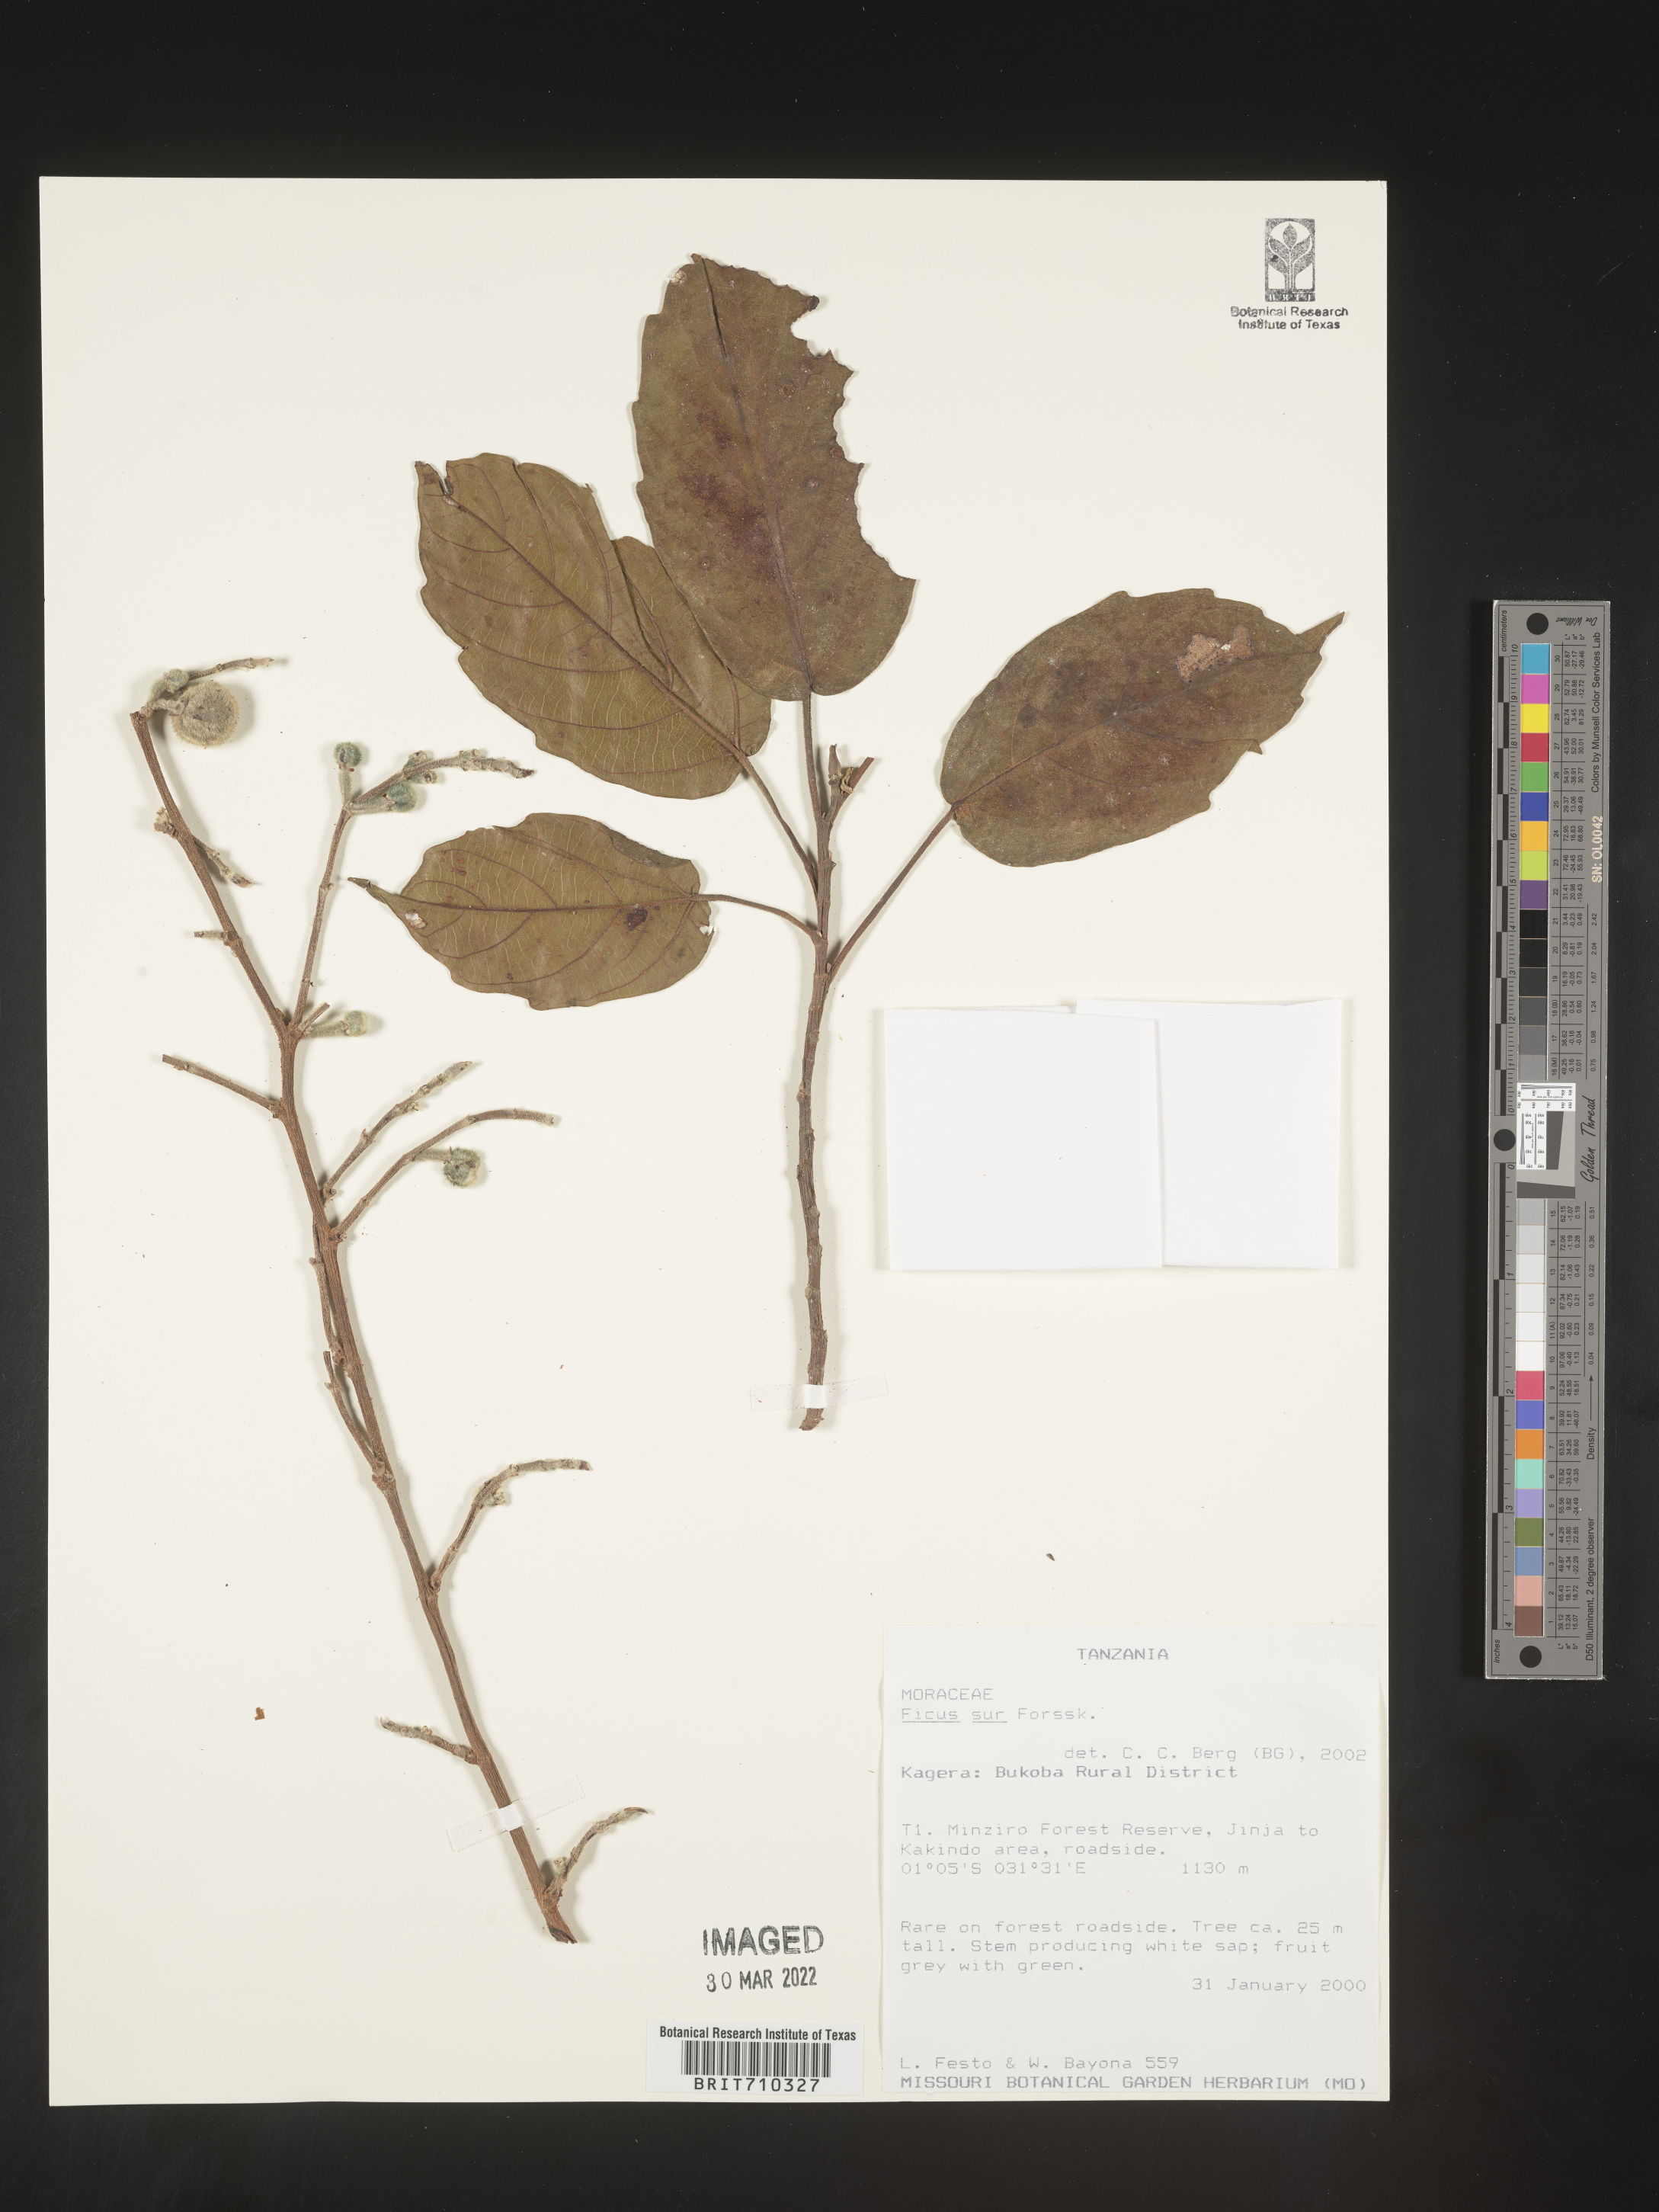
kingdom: Plantae
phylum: Tracheophyta
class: Magnoliopsida
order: Rosales
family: Moraceae
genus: Ficus
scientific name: Ficus
